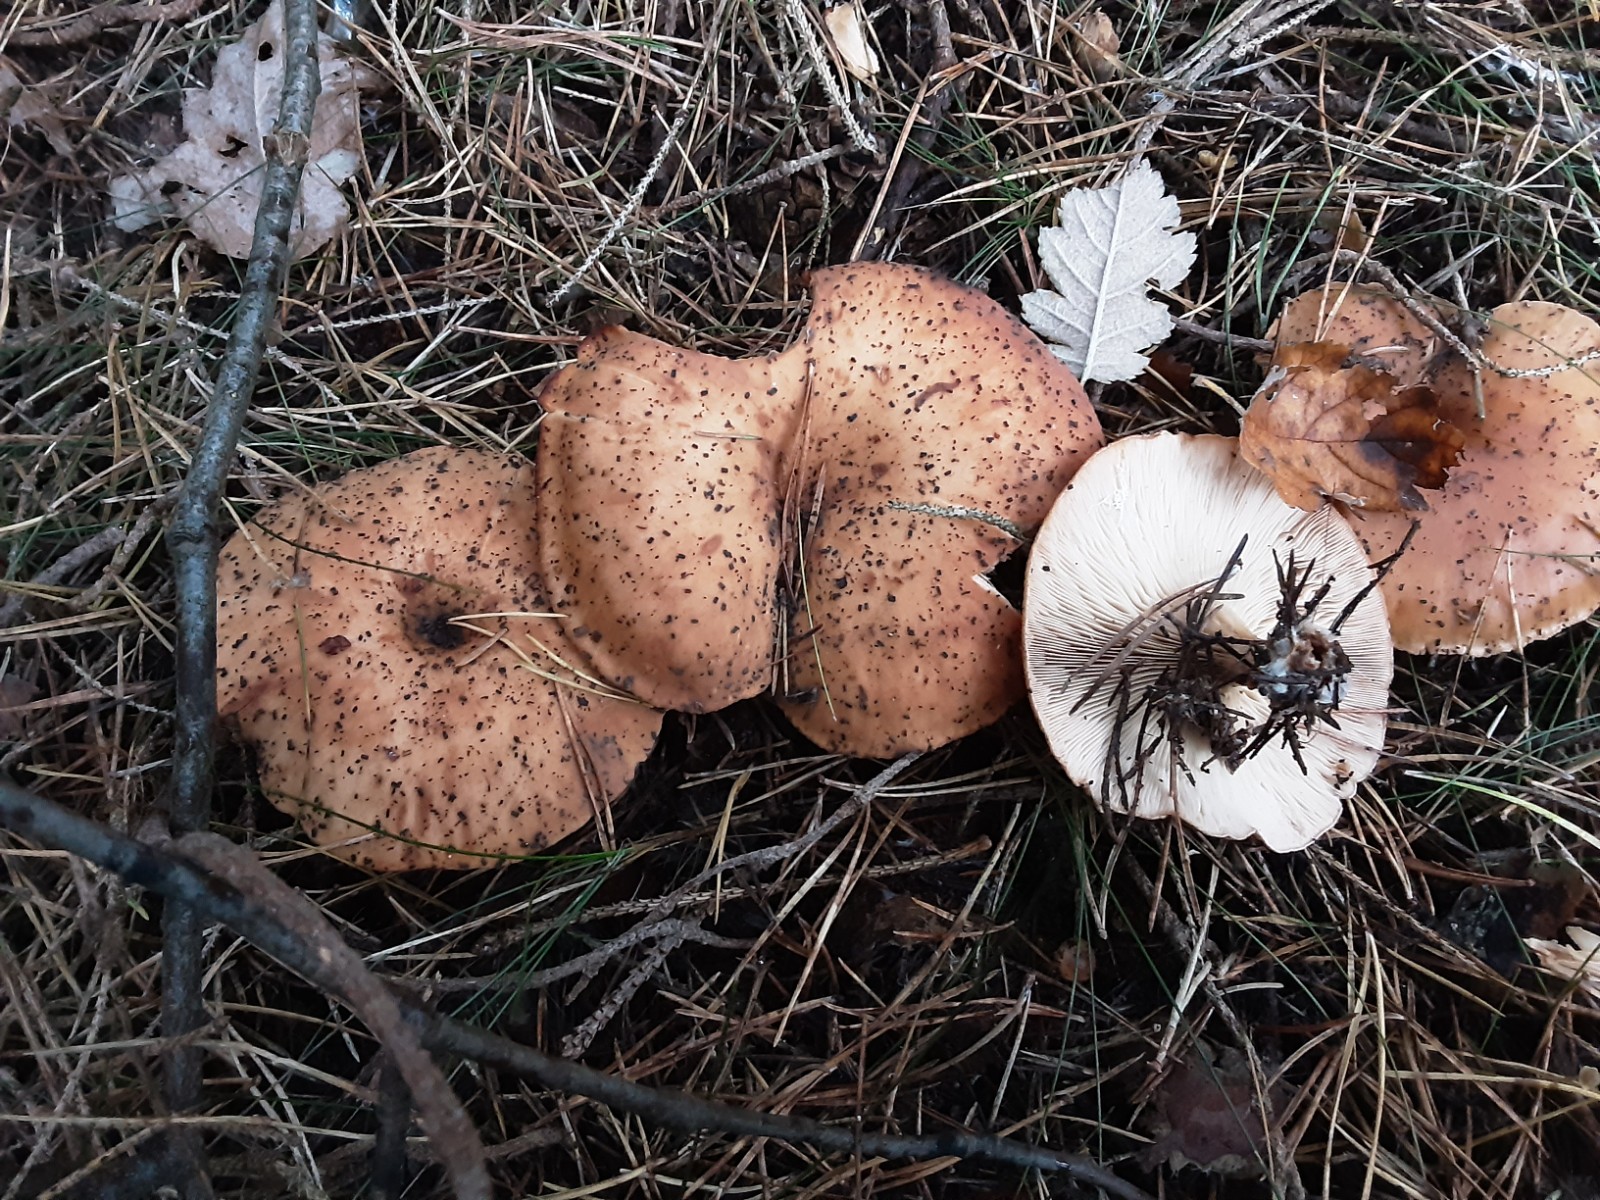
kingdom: Fungi
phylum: Basidiomycota
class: Agaricomycetes
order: Agaricales
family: Tricholomataceae
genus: Paralepista
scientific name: Paralepista flaccida
